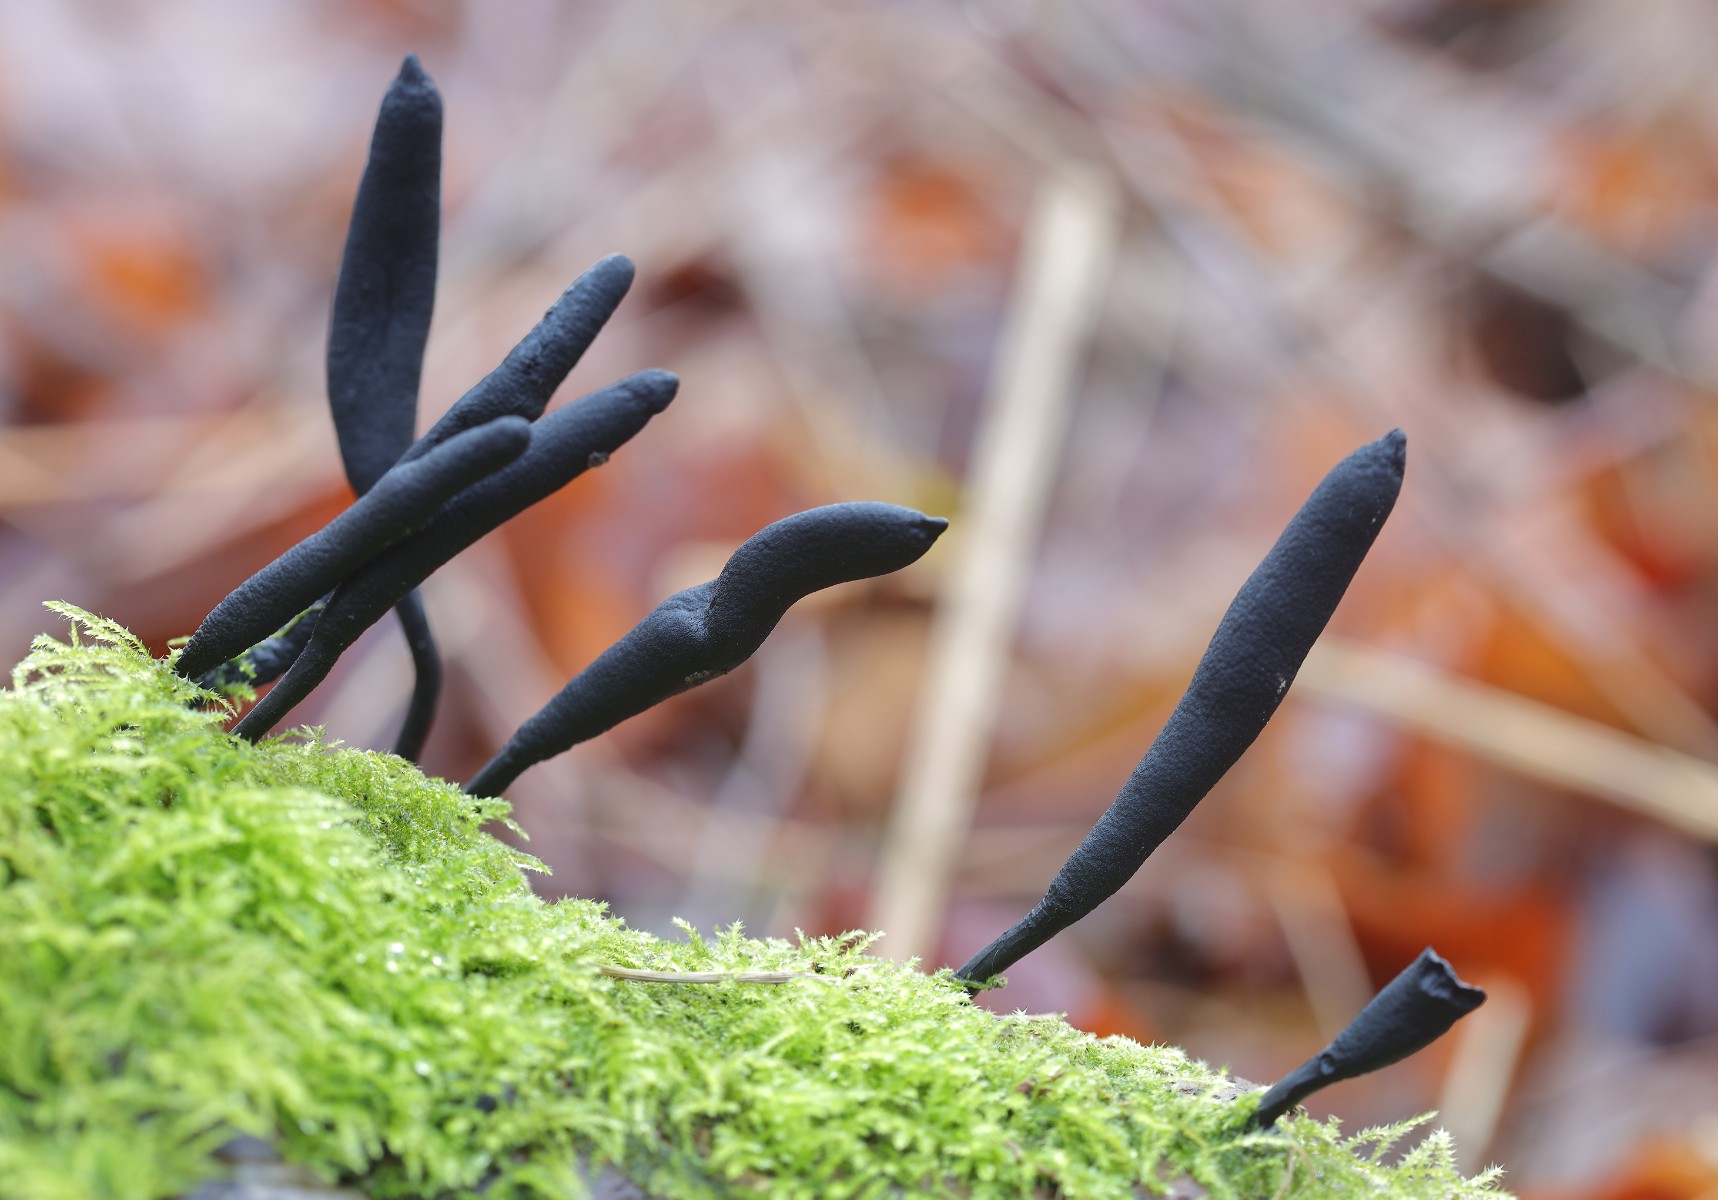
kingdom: Fungi
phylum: Ascomycota
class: Sordariomycetes
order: Xylariales
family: Xylariaceae
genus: Xylaria
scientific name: Xylaria longipes
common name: slank stødsvamp
